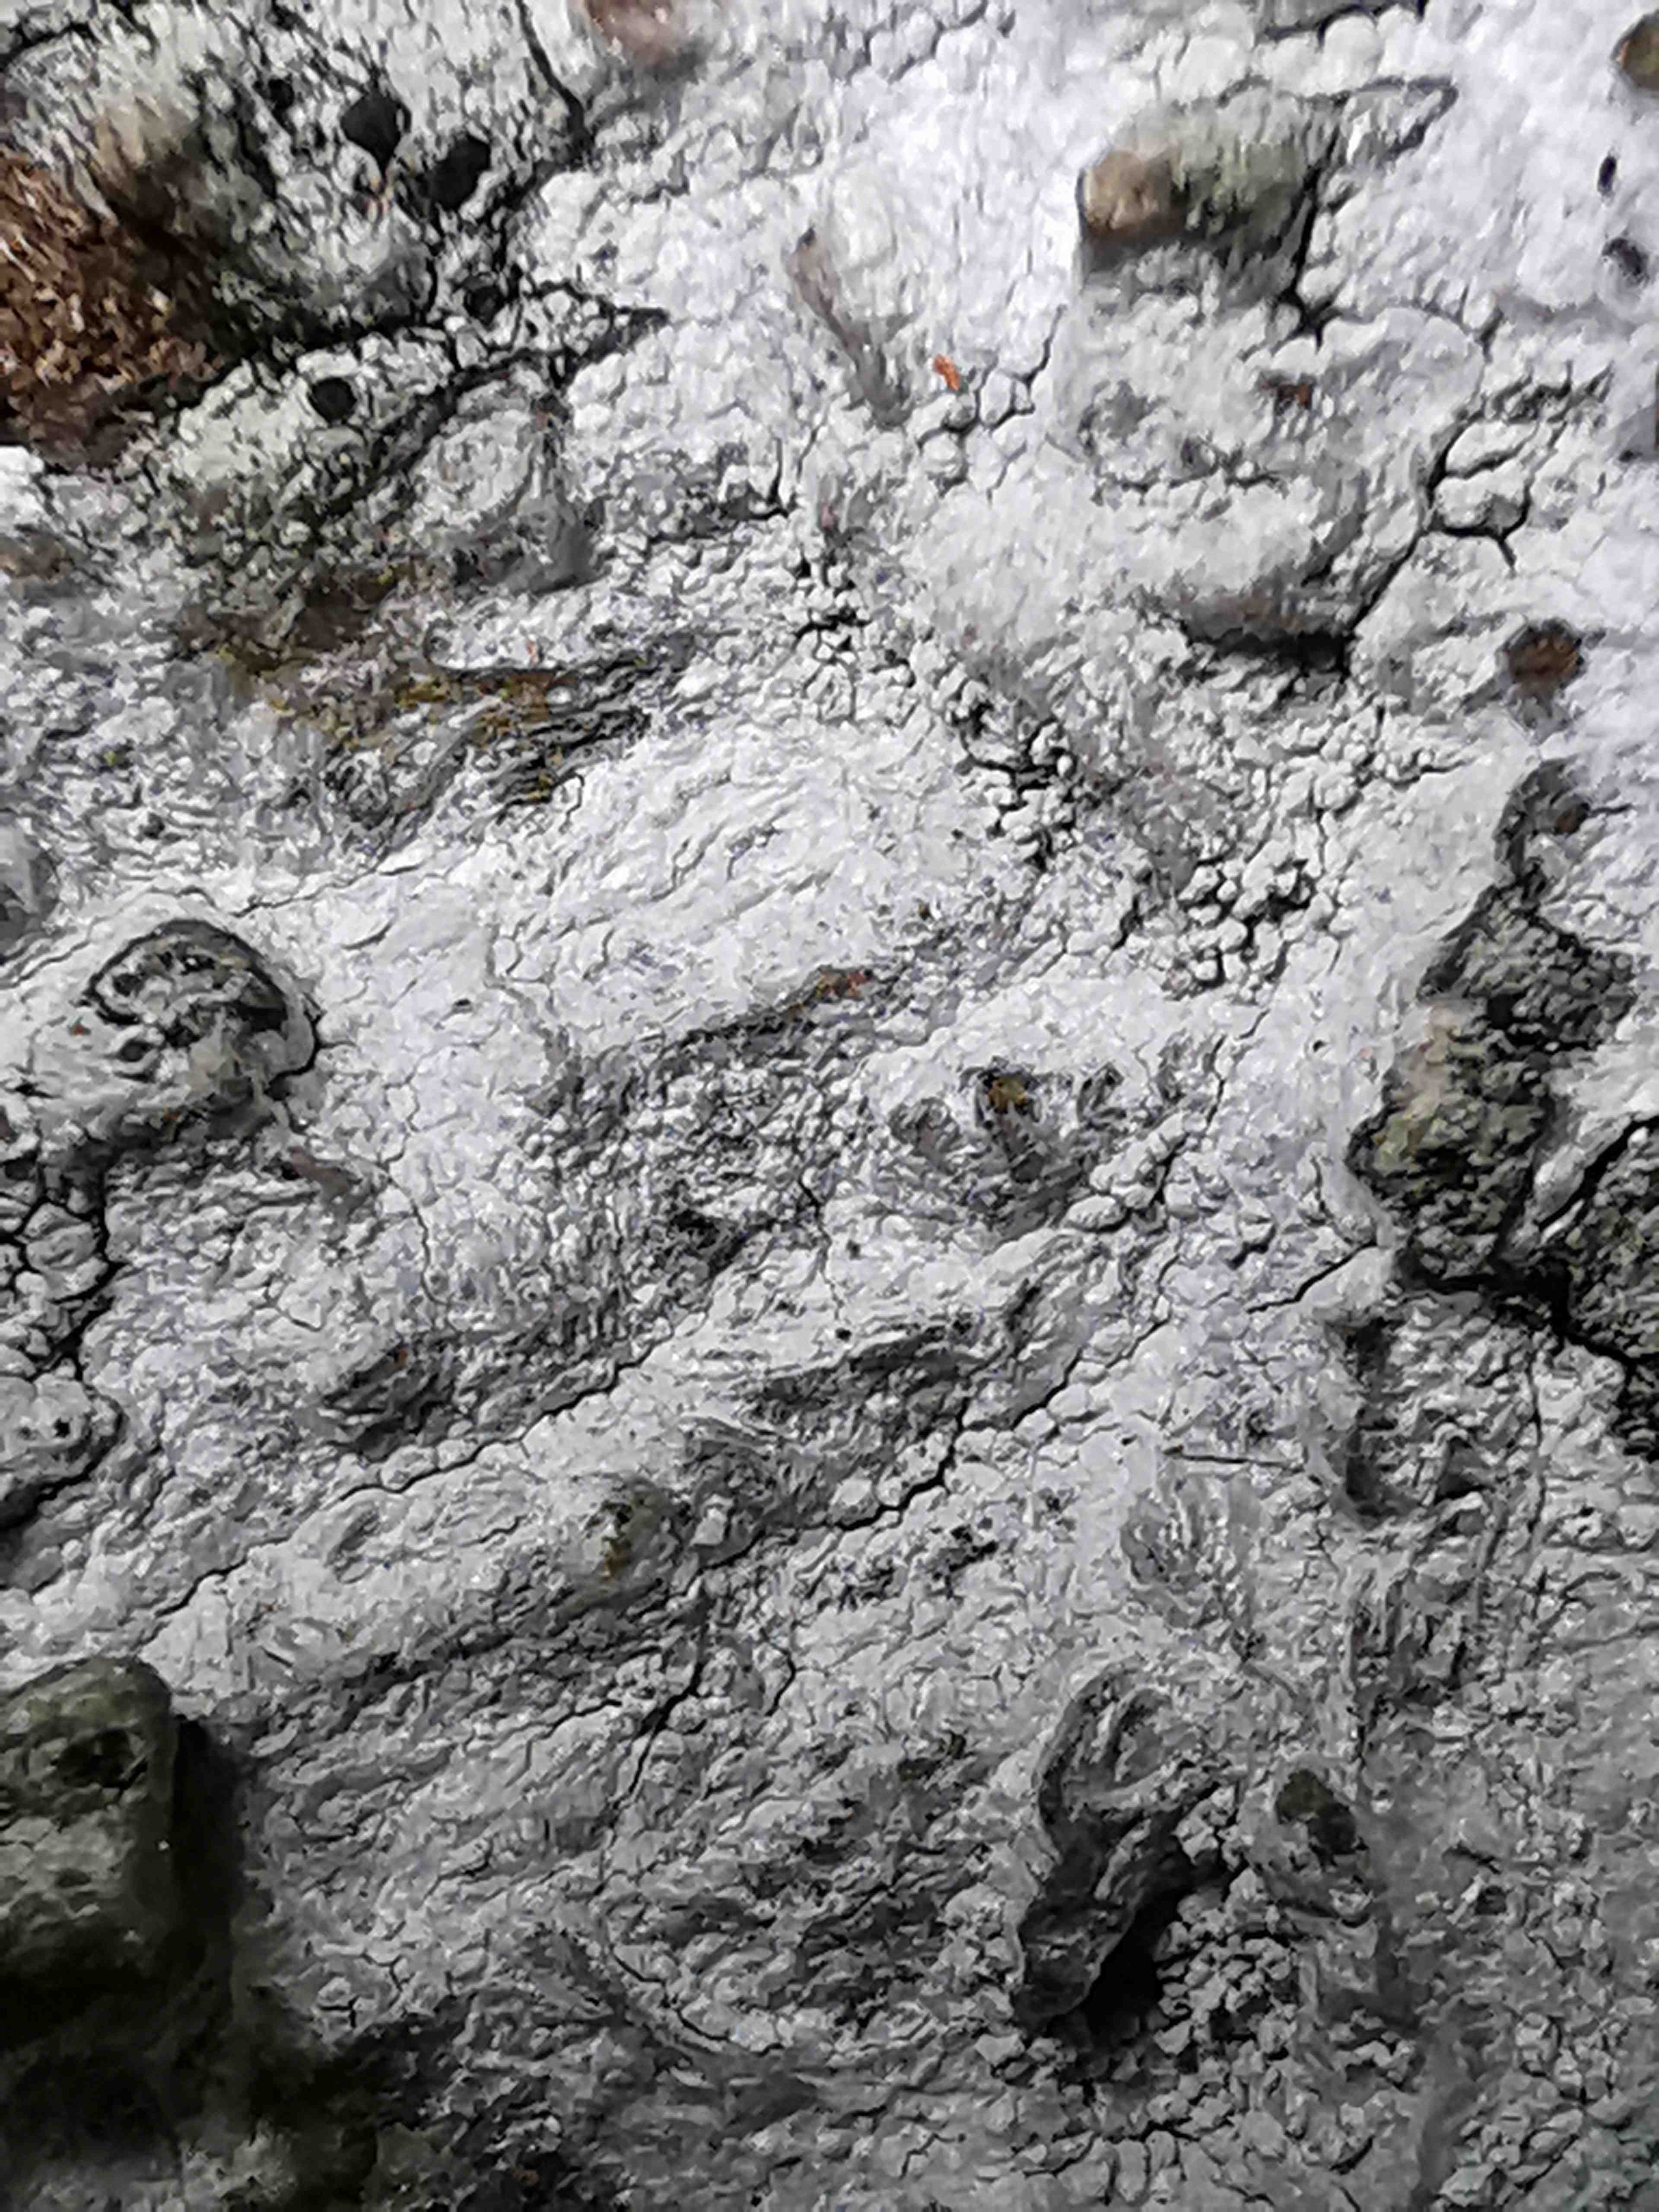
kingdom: Fungi
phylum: Ascomycota
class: Lecanoromycetes
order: Ostropales
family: Phlyctidaceae
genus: Phlyctis
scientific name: Phlyctis argena
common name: almindelig sølvlav
